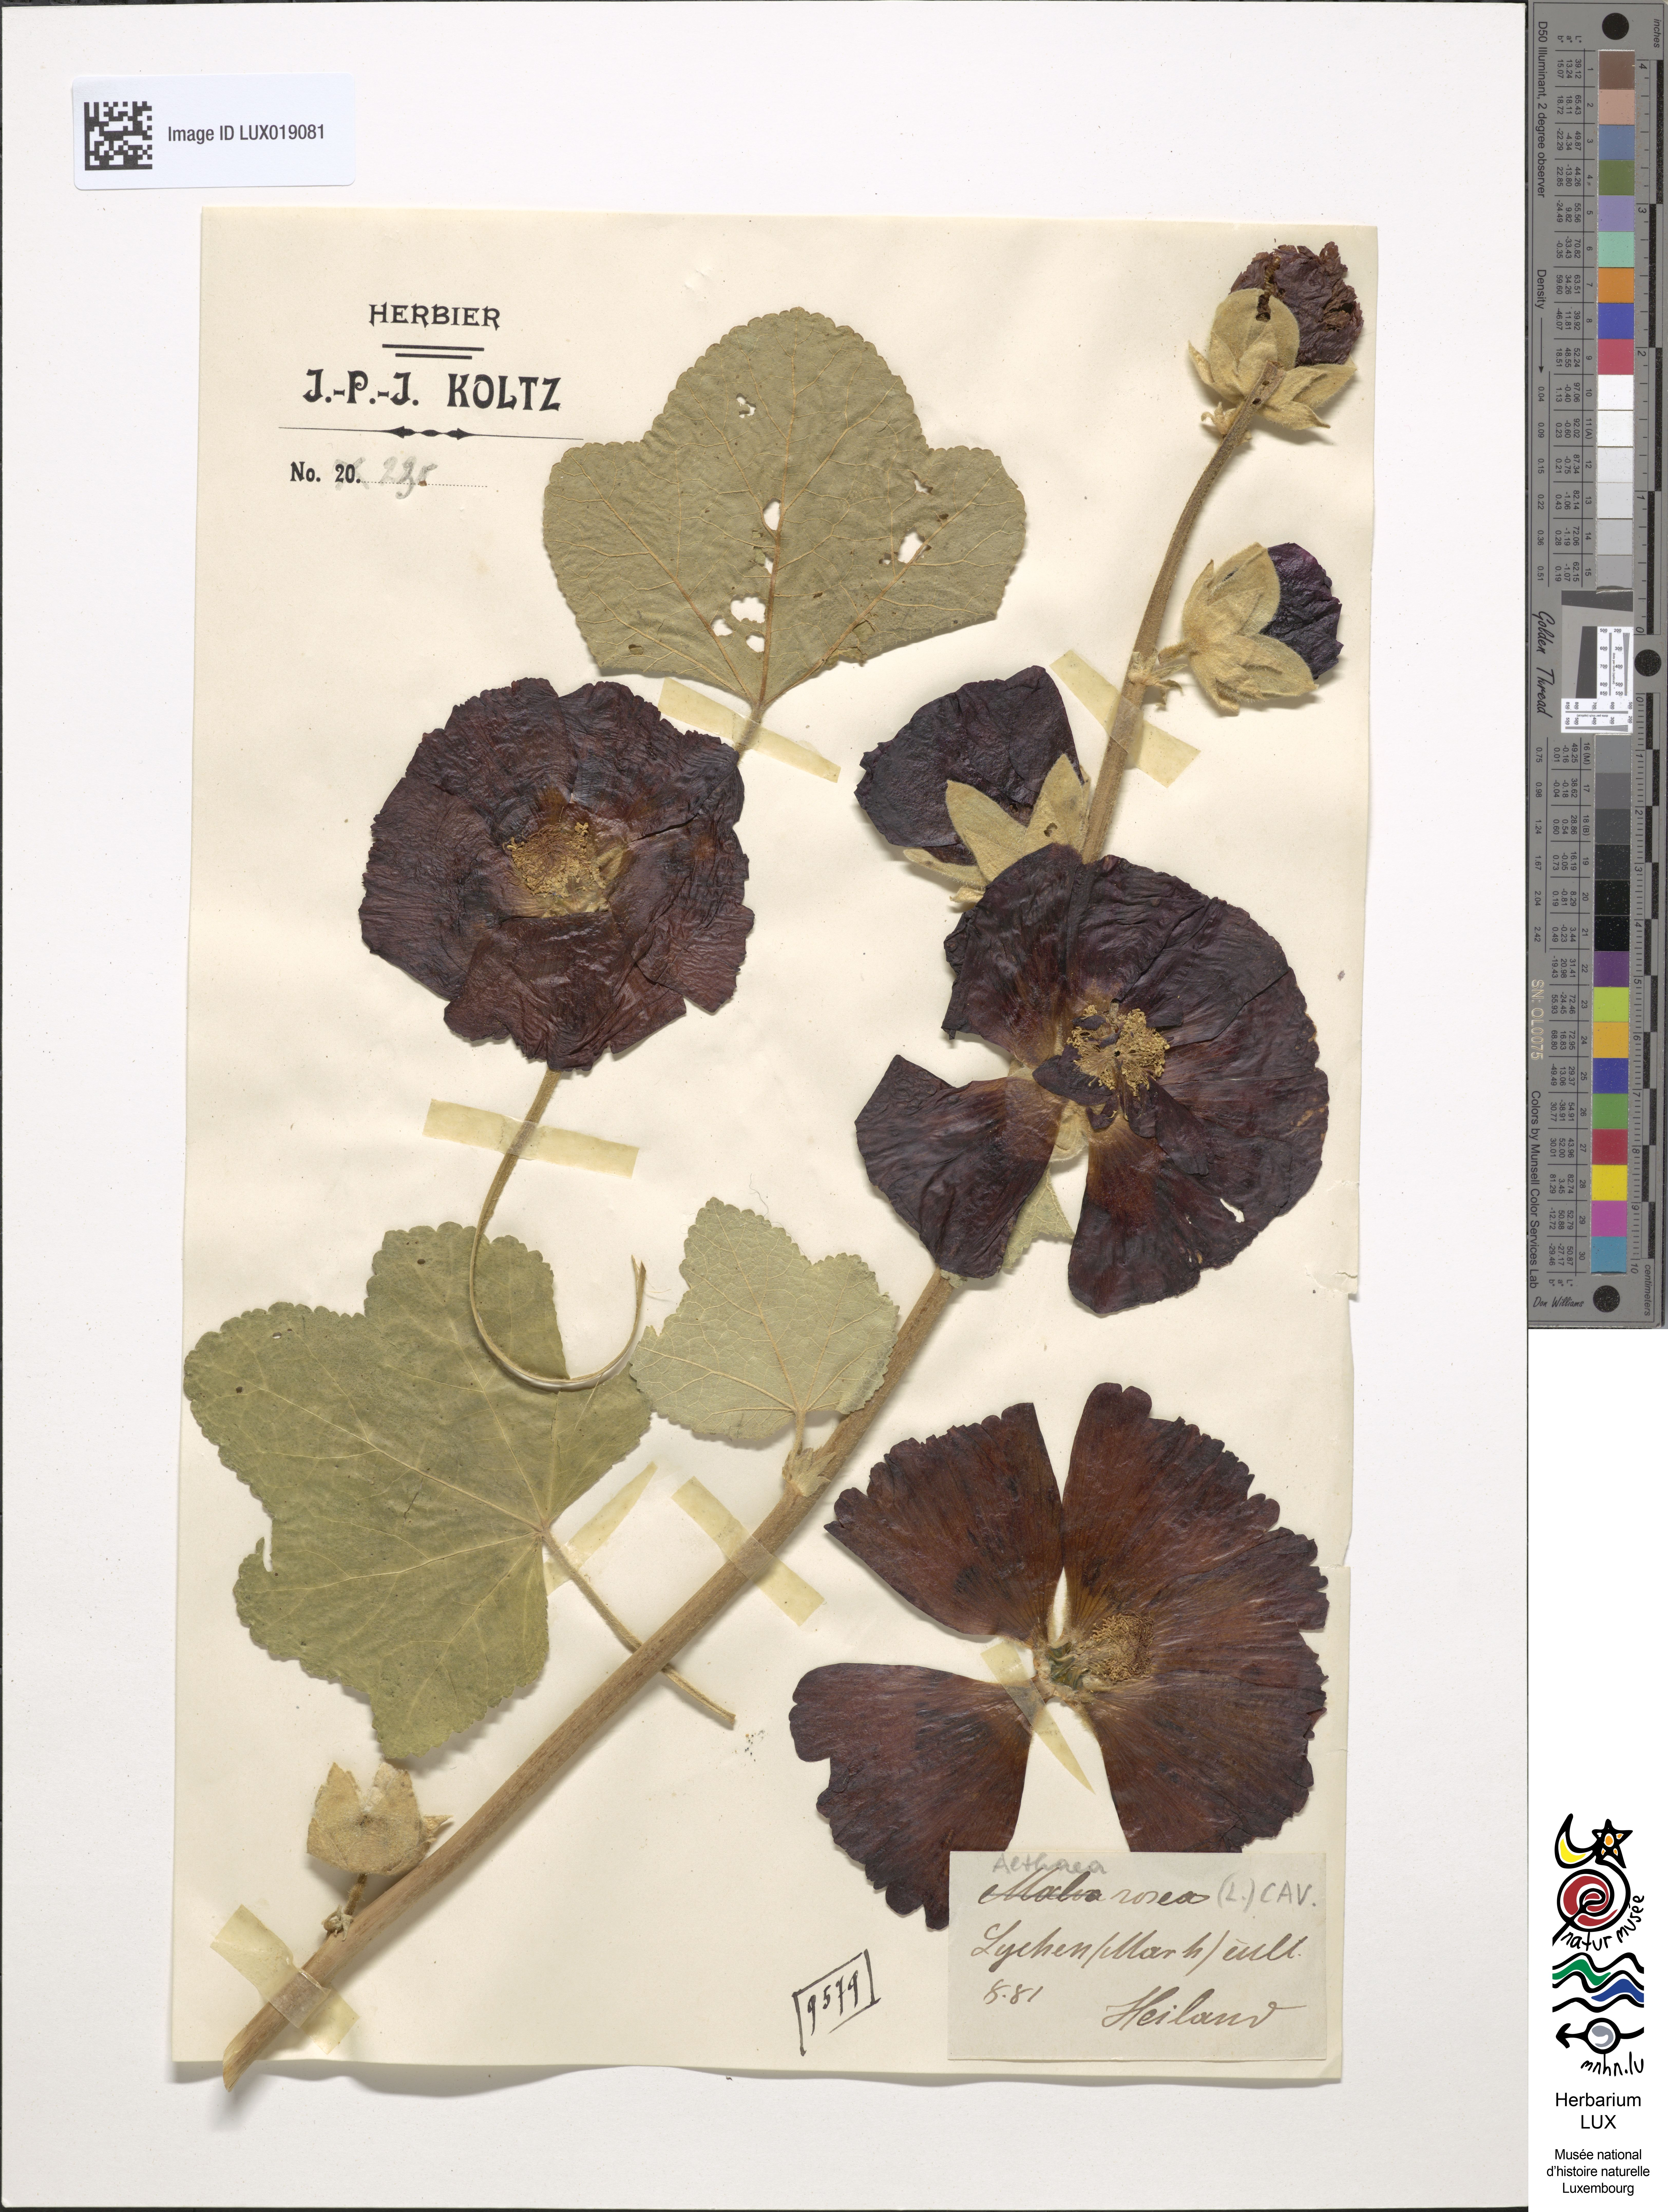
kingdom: Plantae
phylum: Tracheophyta
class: Magnoliopsida
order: Malvales
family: Malvaceae
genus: Alcea
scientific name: Alcea rosea
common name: Hollyhock
